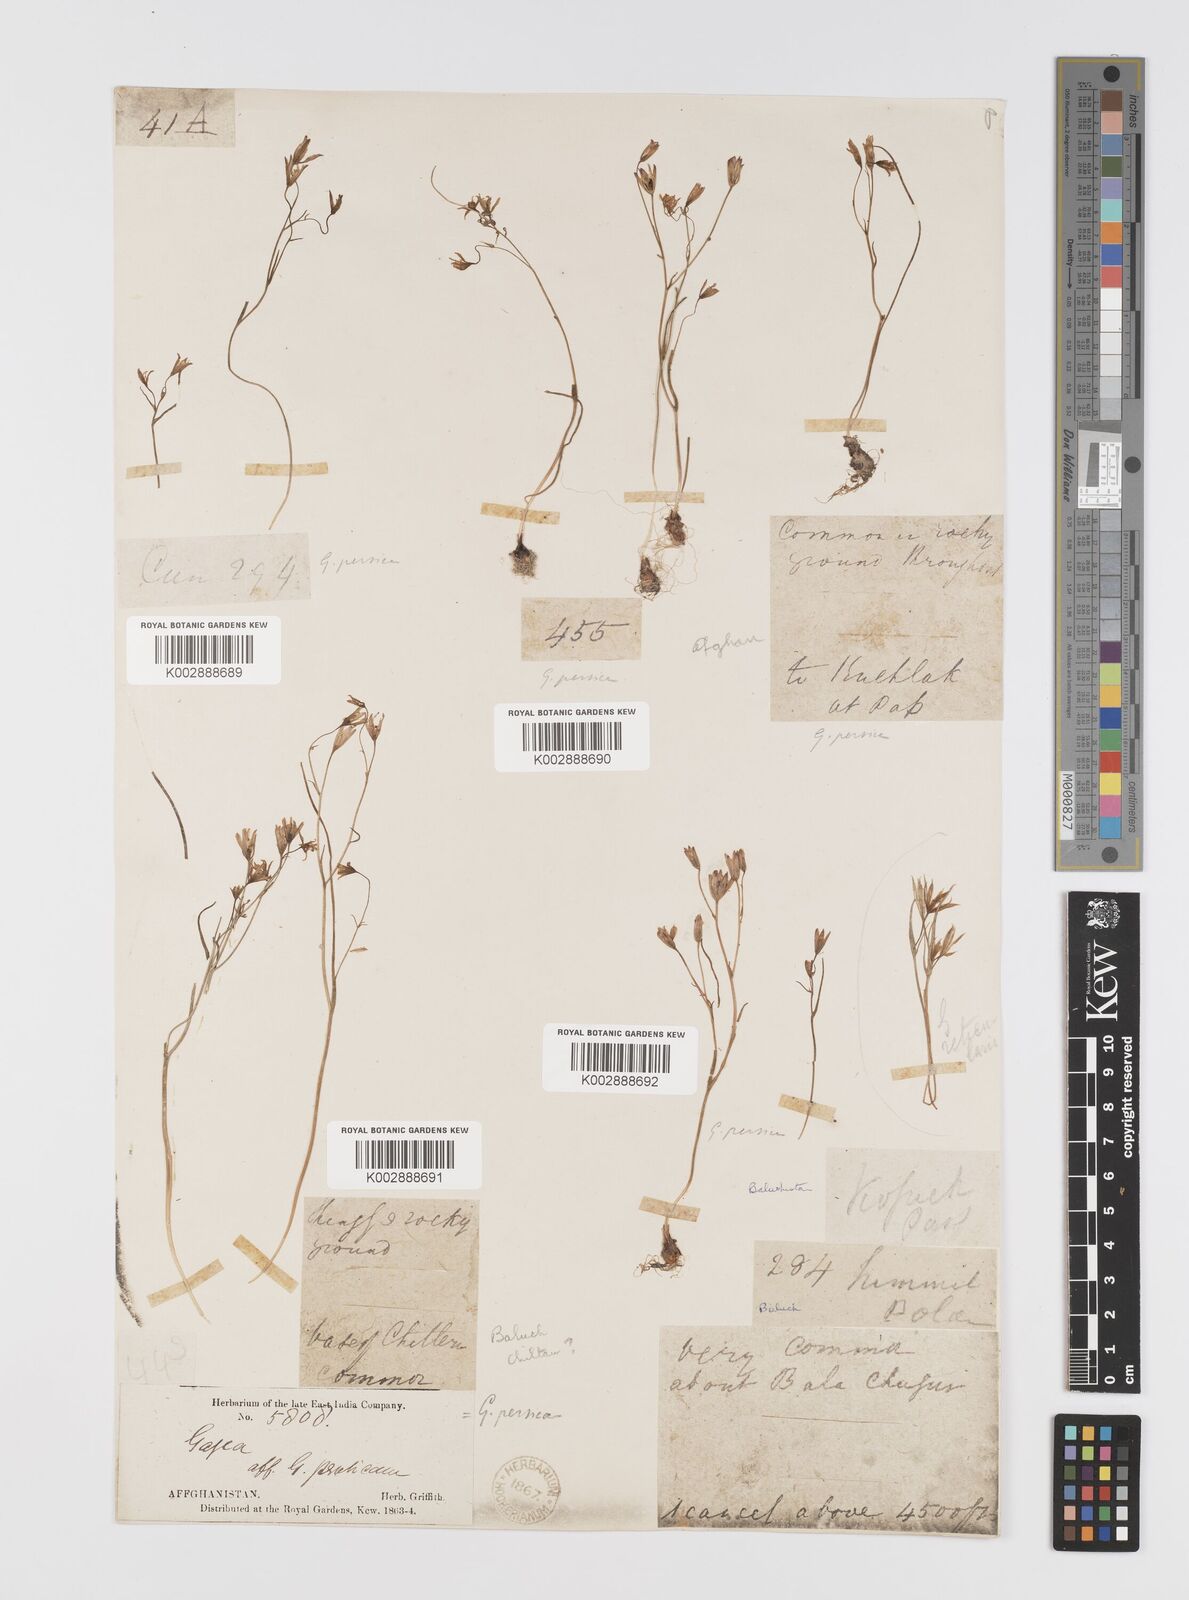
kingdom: Plantae
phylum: Tracheophyta
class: Liliopsida
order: Liliales
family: Liliaceae
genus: Gagea
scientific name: Gagea kunawurensis
